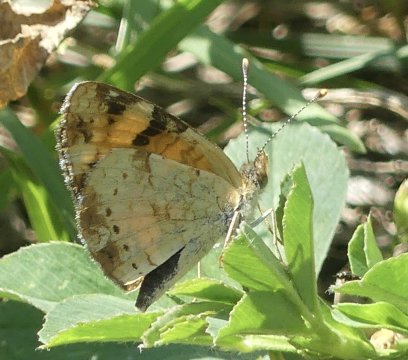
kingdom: Animalia
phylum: Arthropoda
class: Insecta
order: Lepidoptera
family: Nymphalidae
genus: Phyciodes
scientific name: Phyciodes
